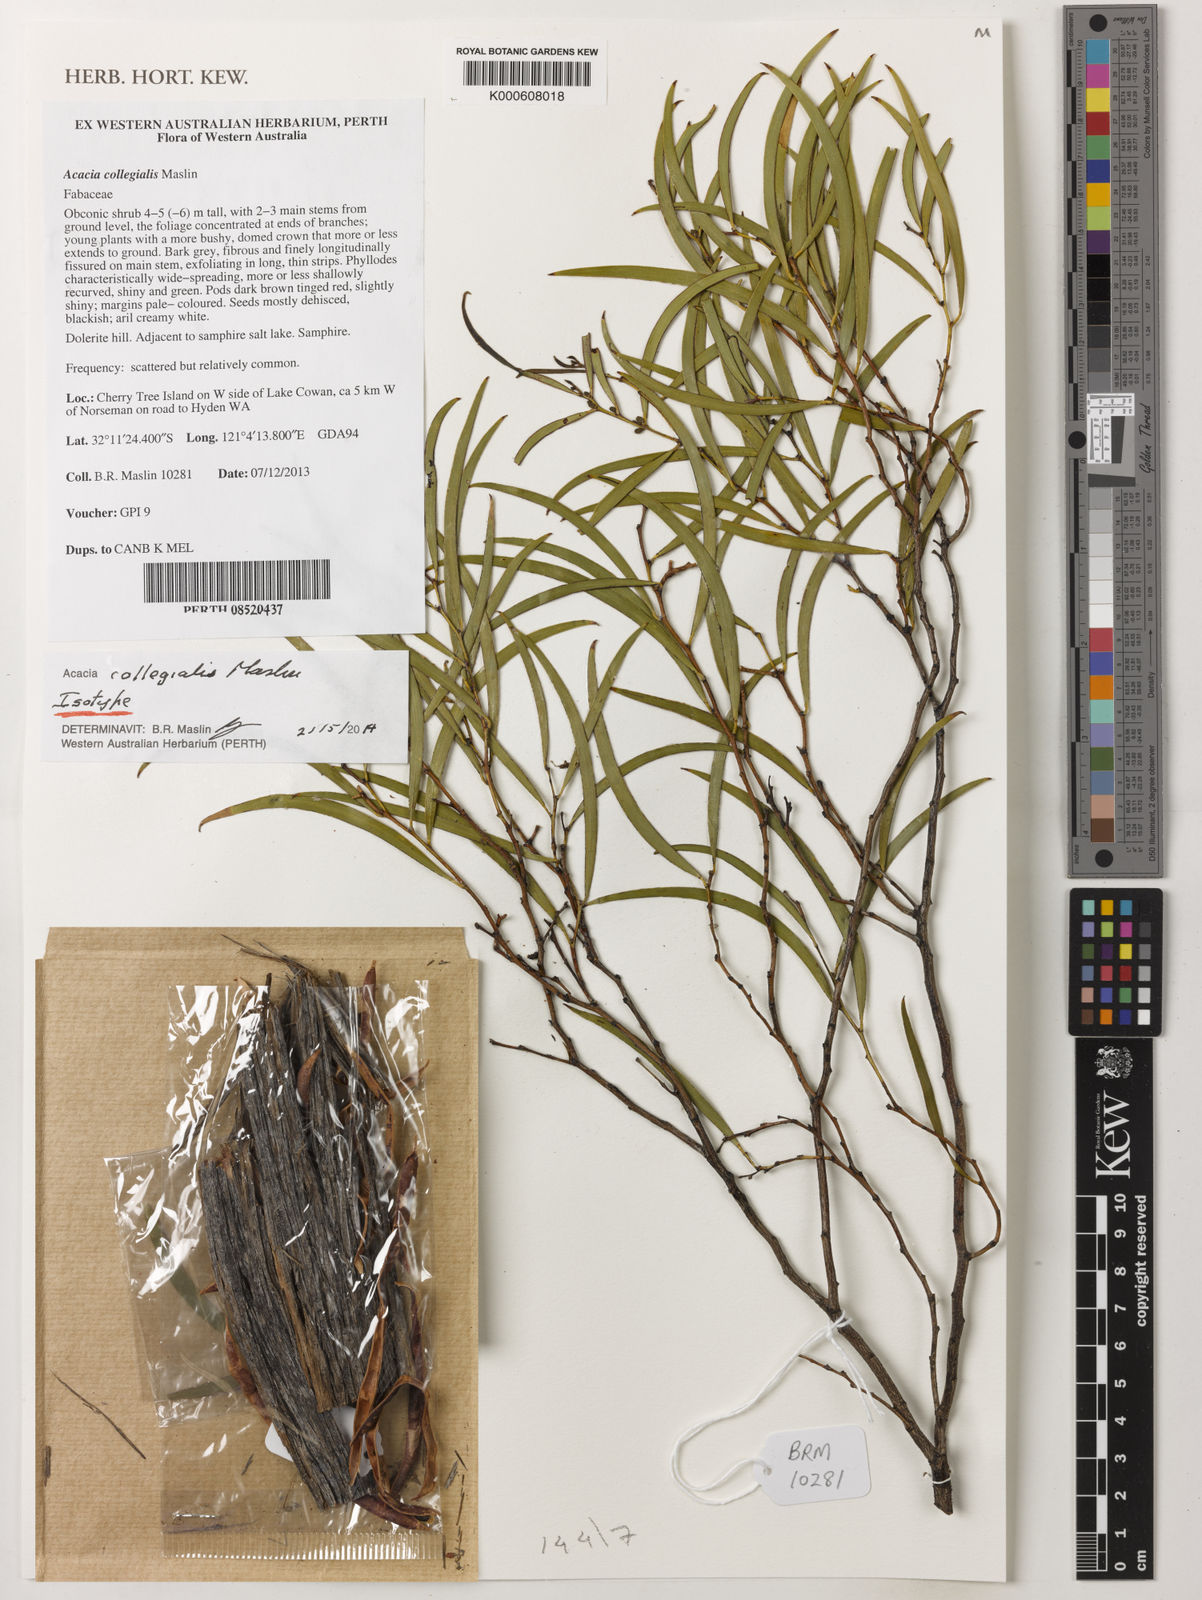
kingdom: Plantae
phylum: Tracheophyta
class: Magnoliopsida
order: Fabales
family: Fabaceae
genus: Acacia
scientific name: Acacia collegialis
